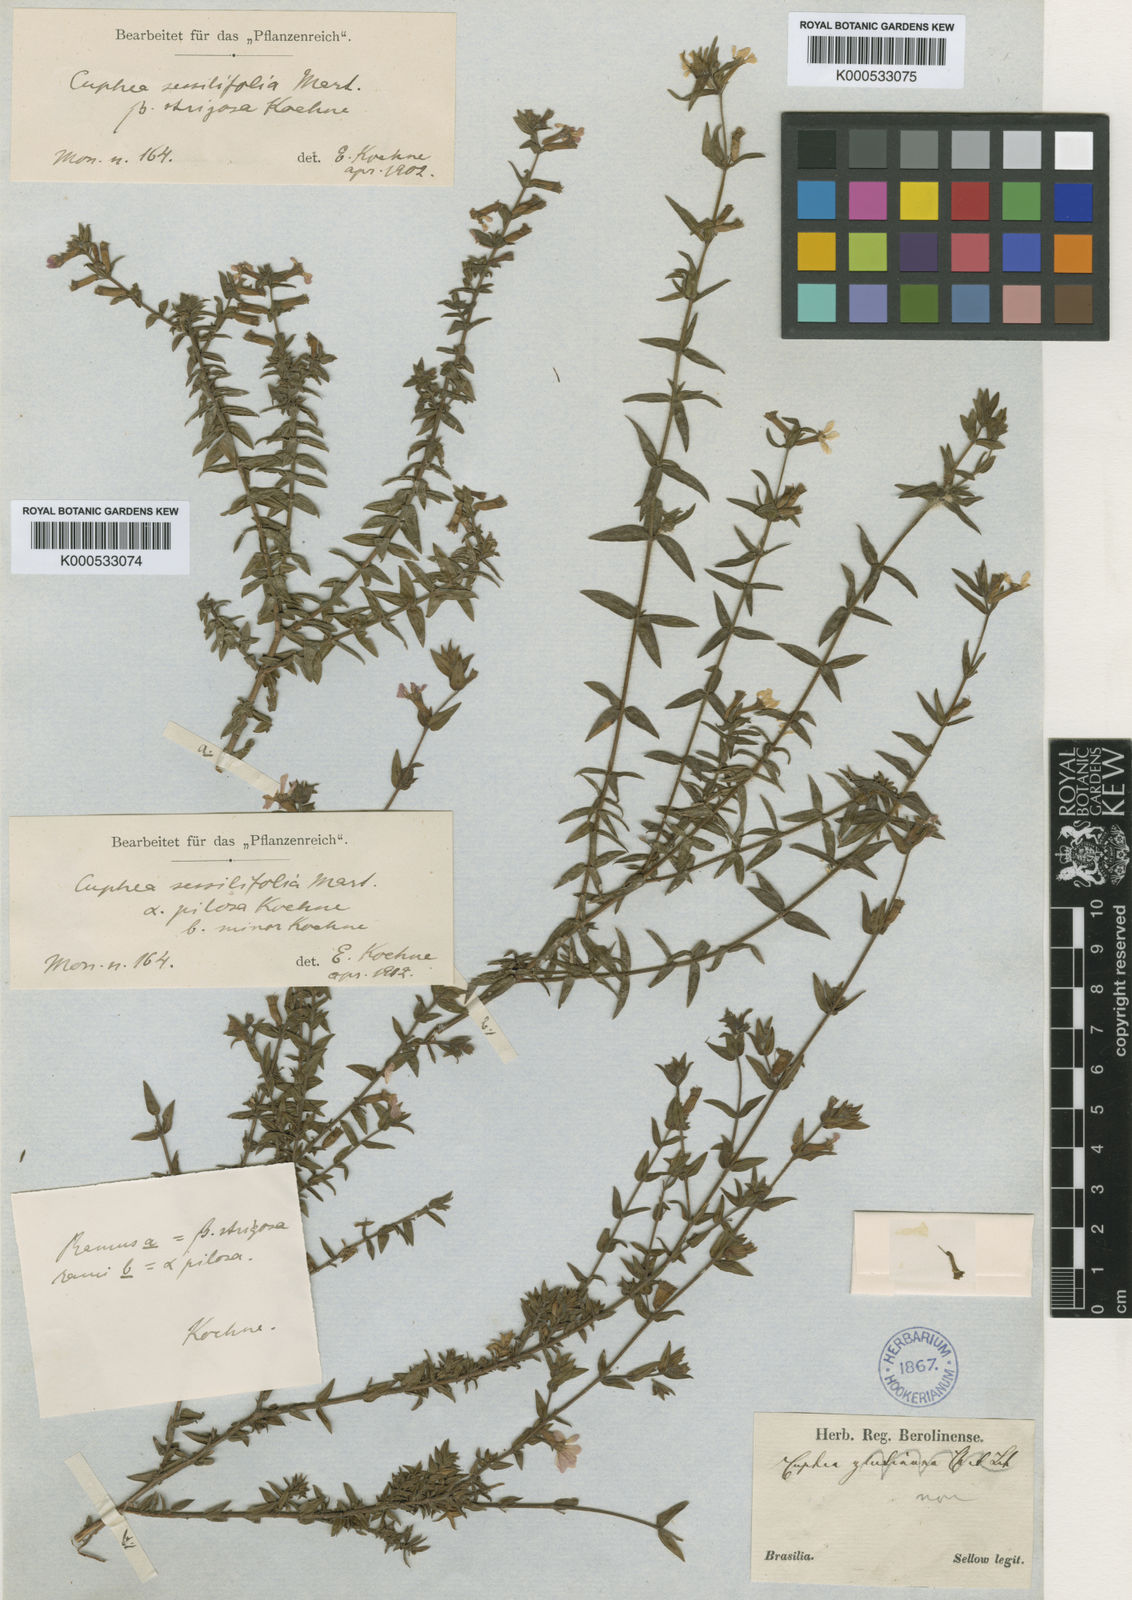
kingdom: Plantae
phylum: Tracheophyta
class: Magnoliopsida
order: Myrtales
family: Lythraceae
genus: Cuphea
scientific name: Cuphea sessilifolia
